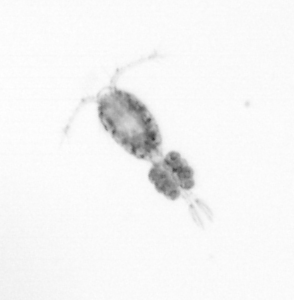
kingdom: Animalia
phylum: Arthropoda
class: Copepoda
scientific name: Copepoda
